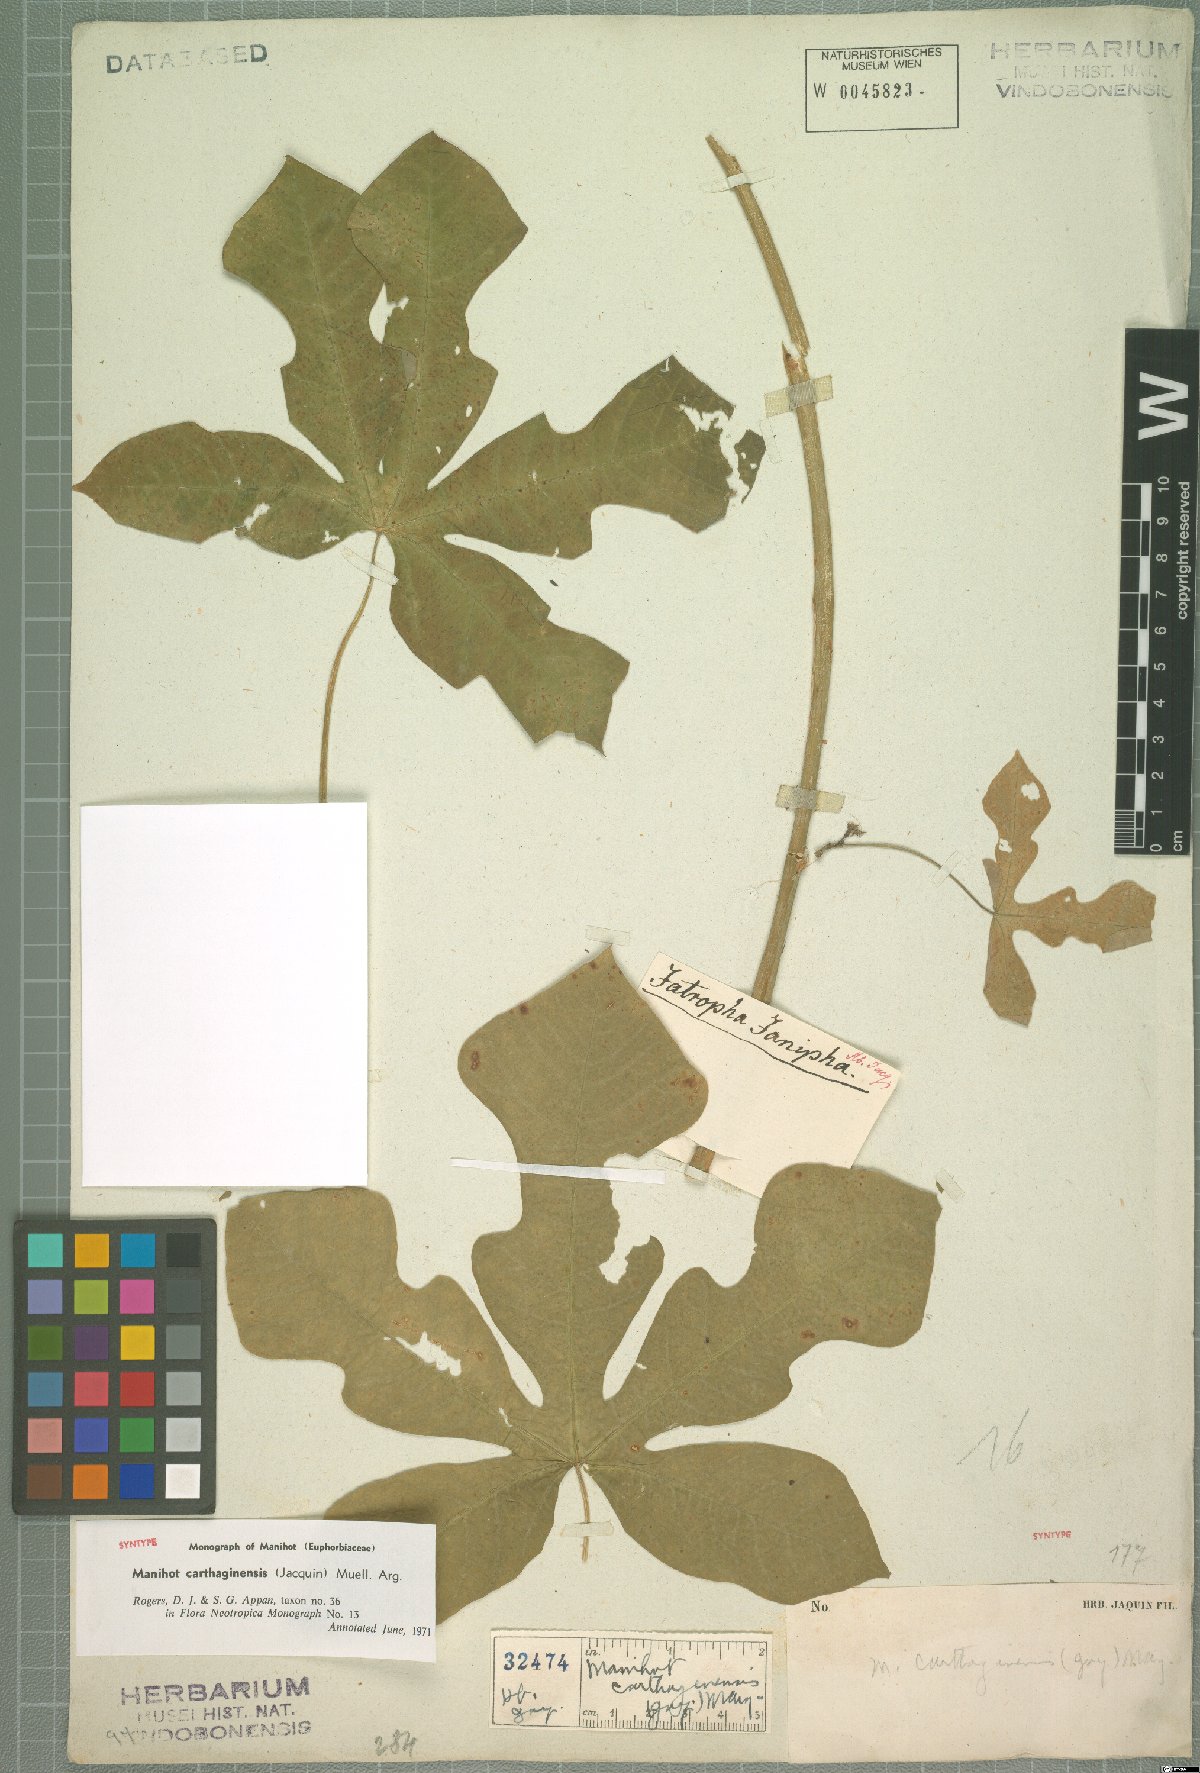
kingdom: Plantae
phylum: Tracheophyta
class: Magnoliopsida
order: Malpighiales
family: Euphorbiaceae
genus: Manihot
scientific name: Manihot carthagenensis
